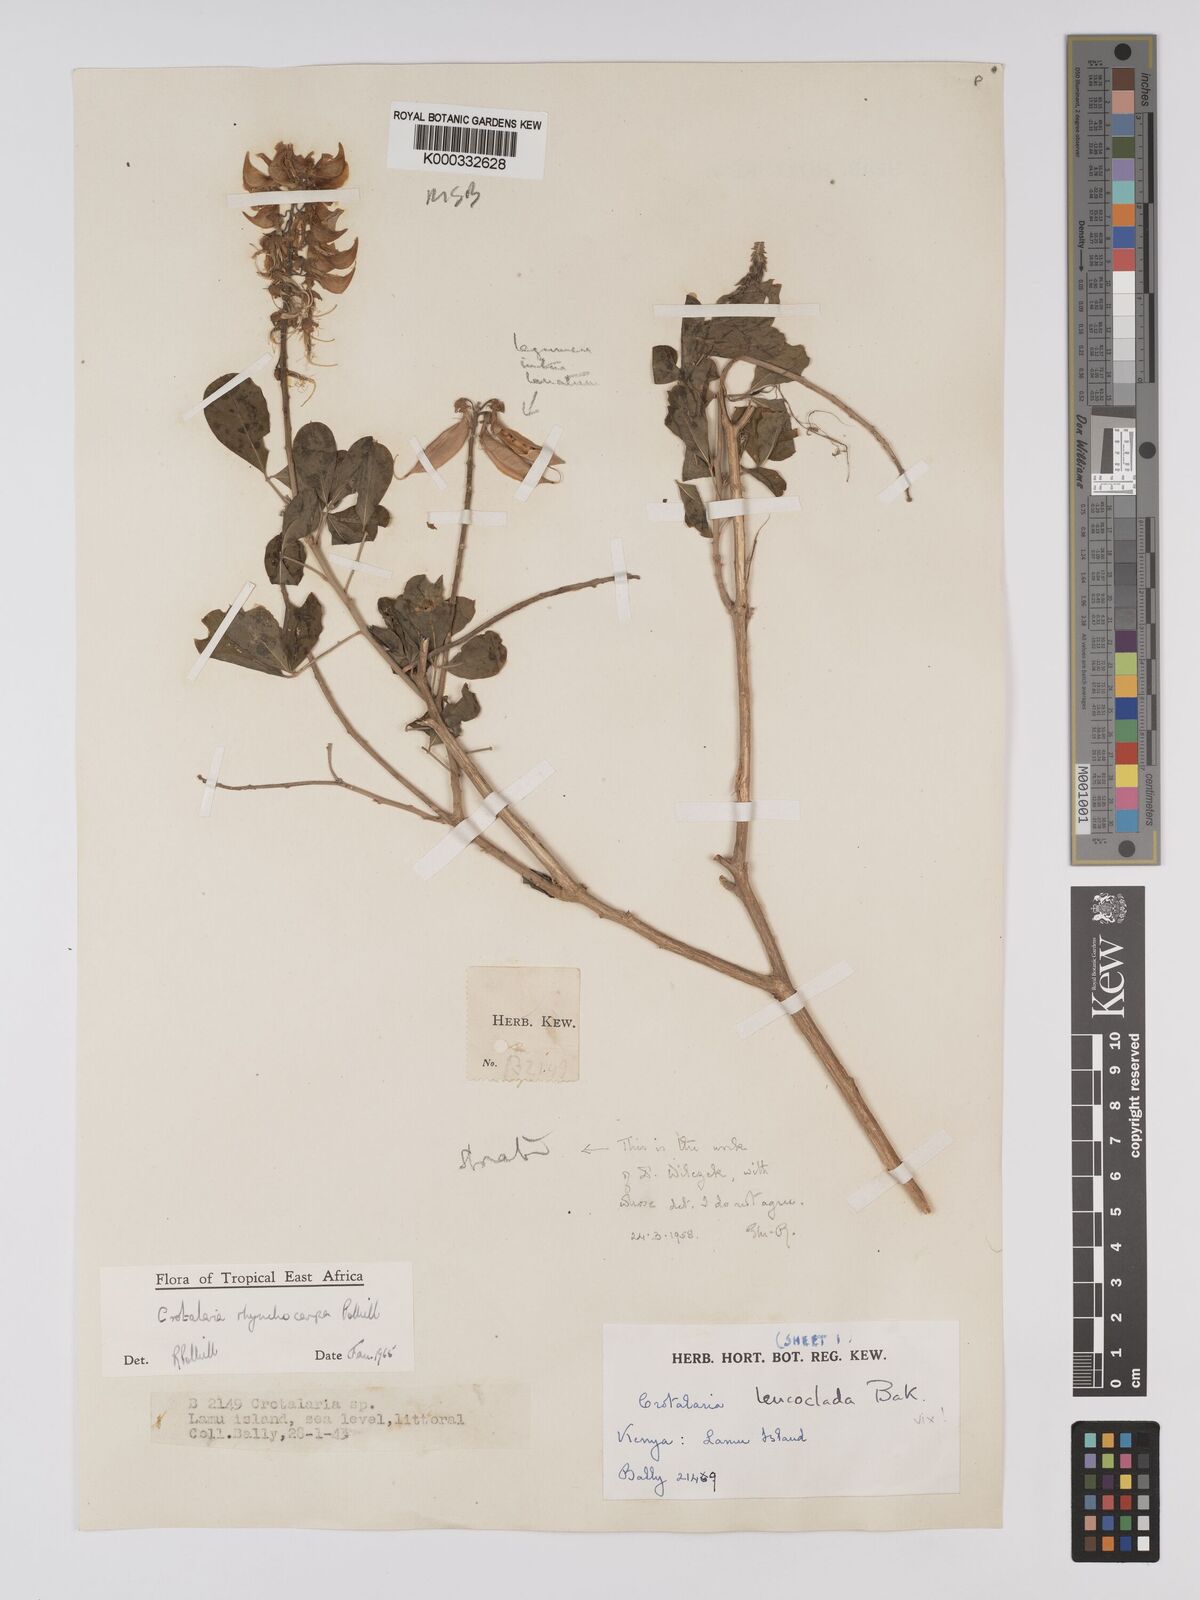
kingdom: Plantae
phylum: Tracheophyta
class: Magnoliopsida
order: Fabales
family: Fabaceae
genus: Crotalaria
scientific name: Crotalaria rhynchocarpa
